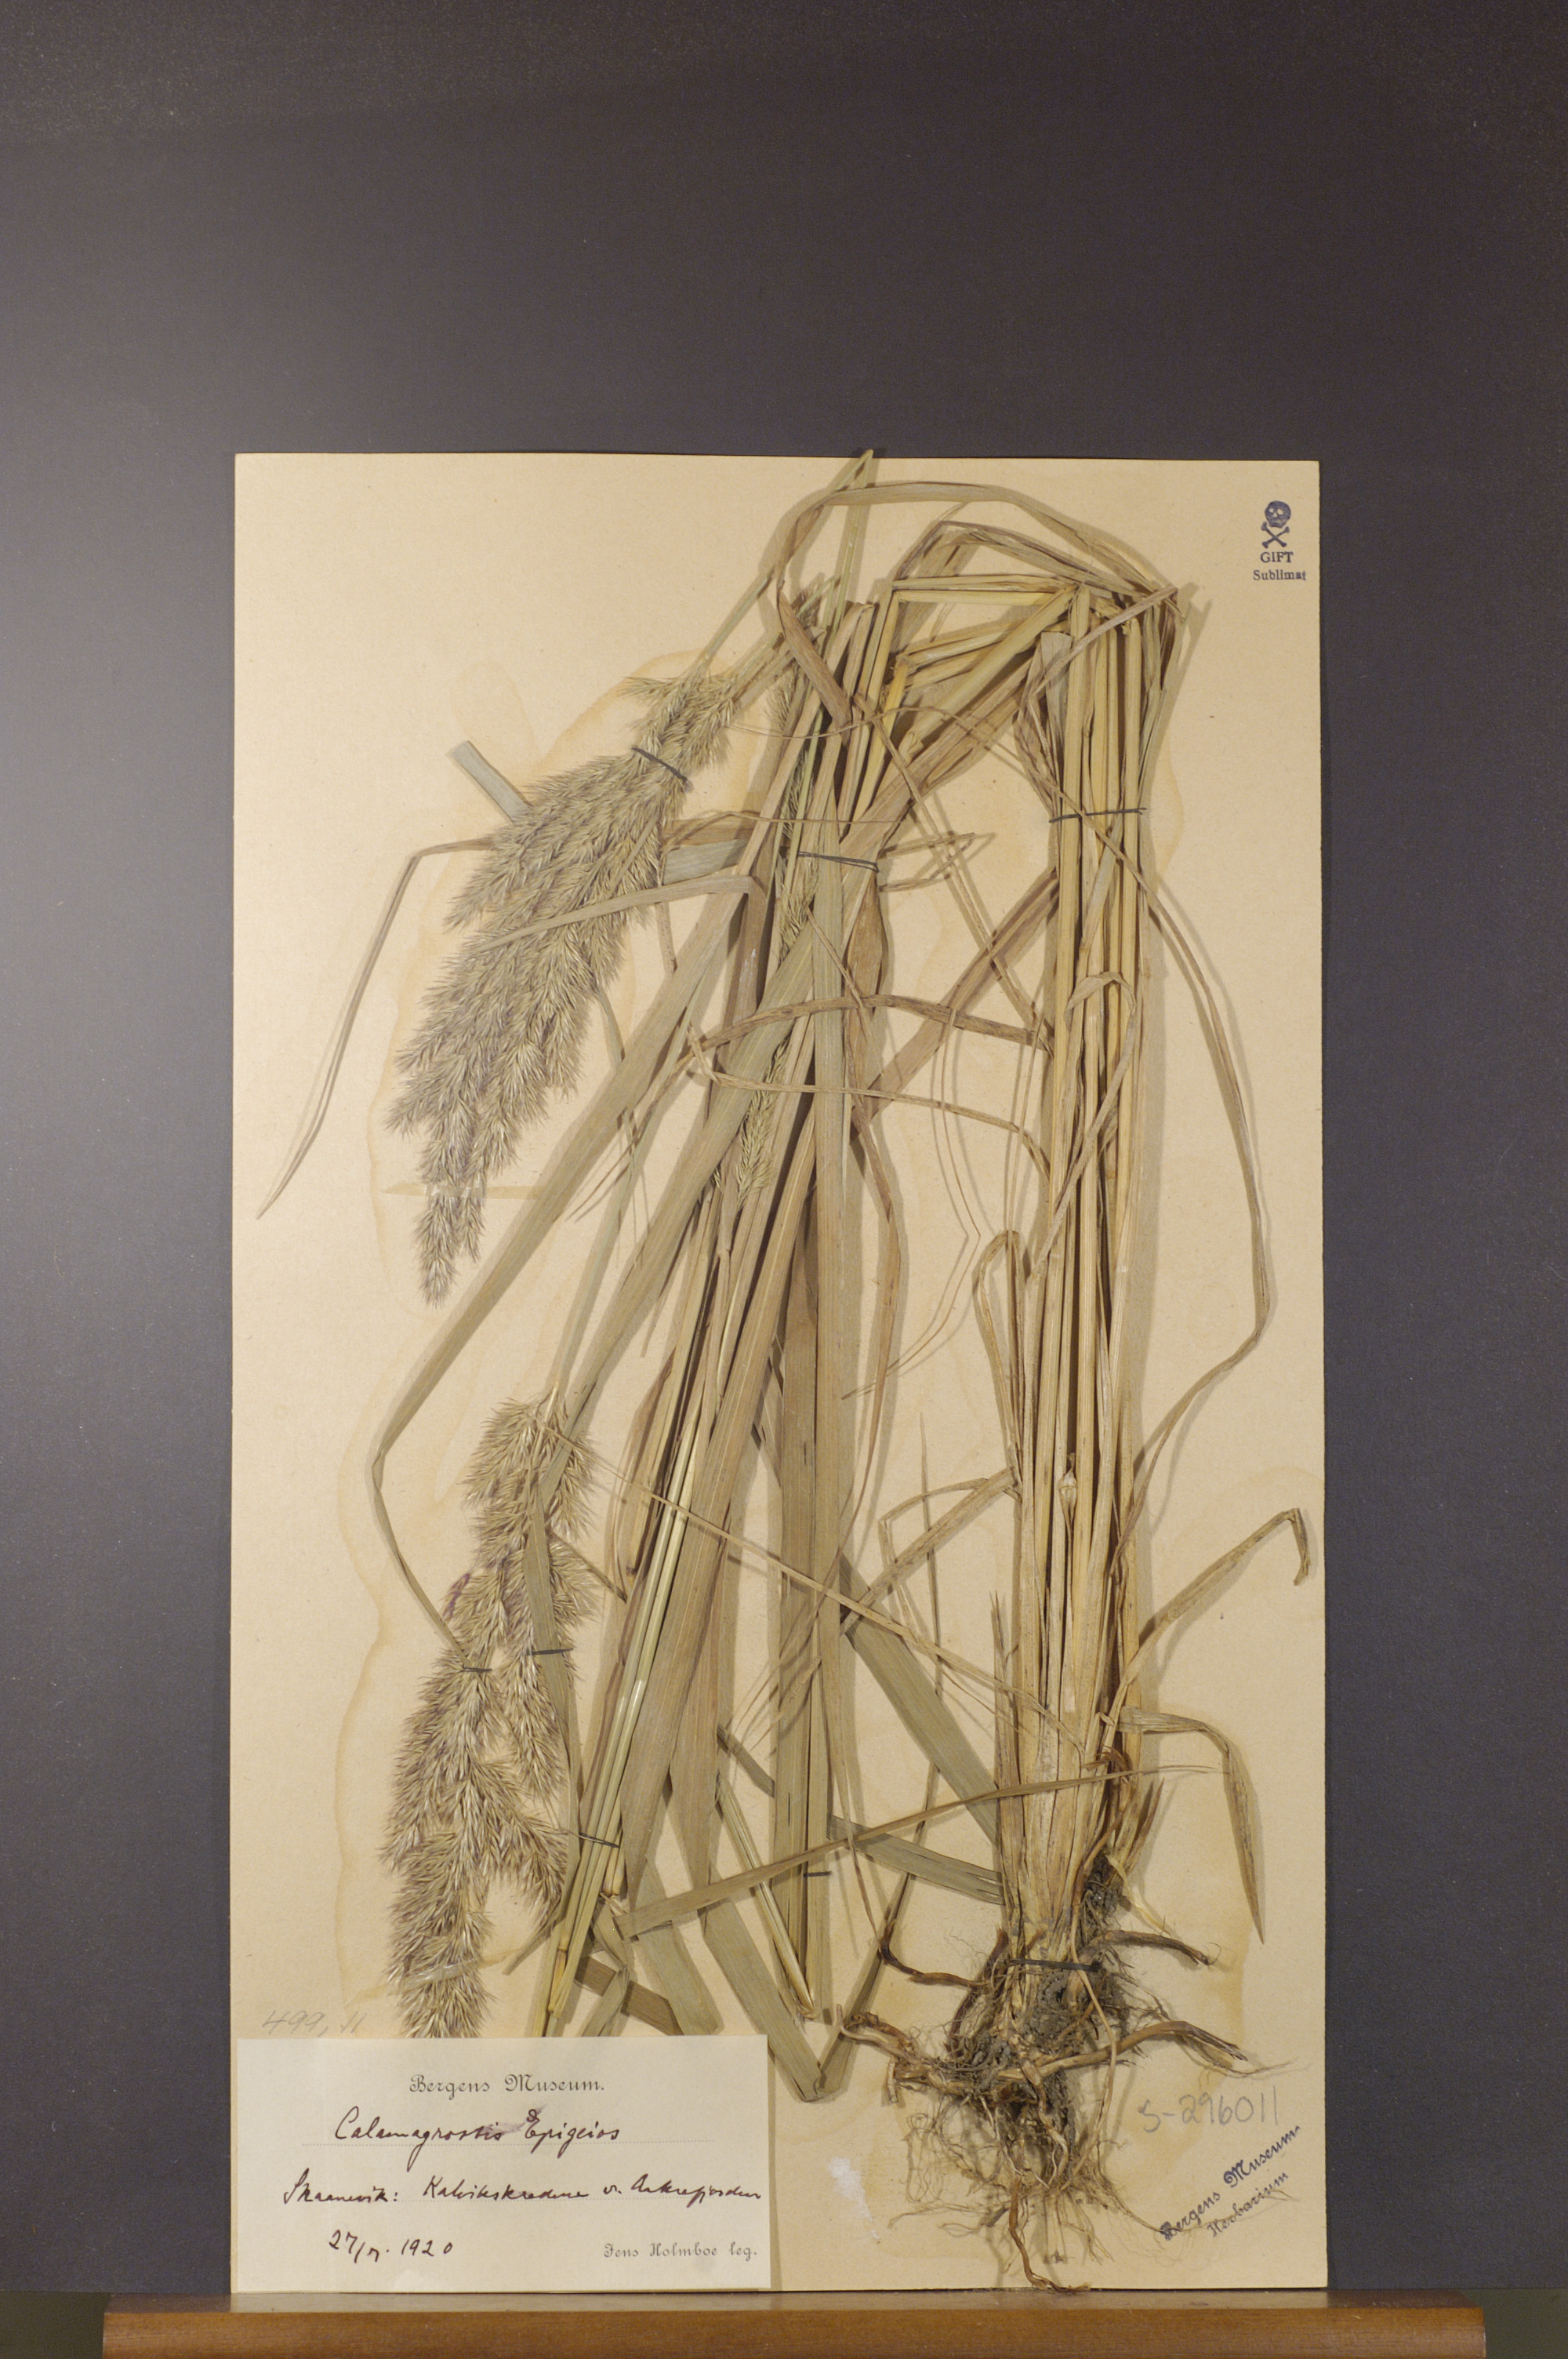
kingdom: Plantae
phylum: Tracheophyta
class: Liliopsida
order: Poales
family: Poaceae
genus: Calamagrostis
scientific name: Calamagrostis epigejos
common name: Wood small-reed
